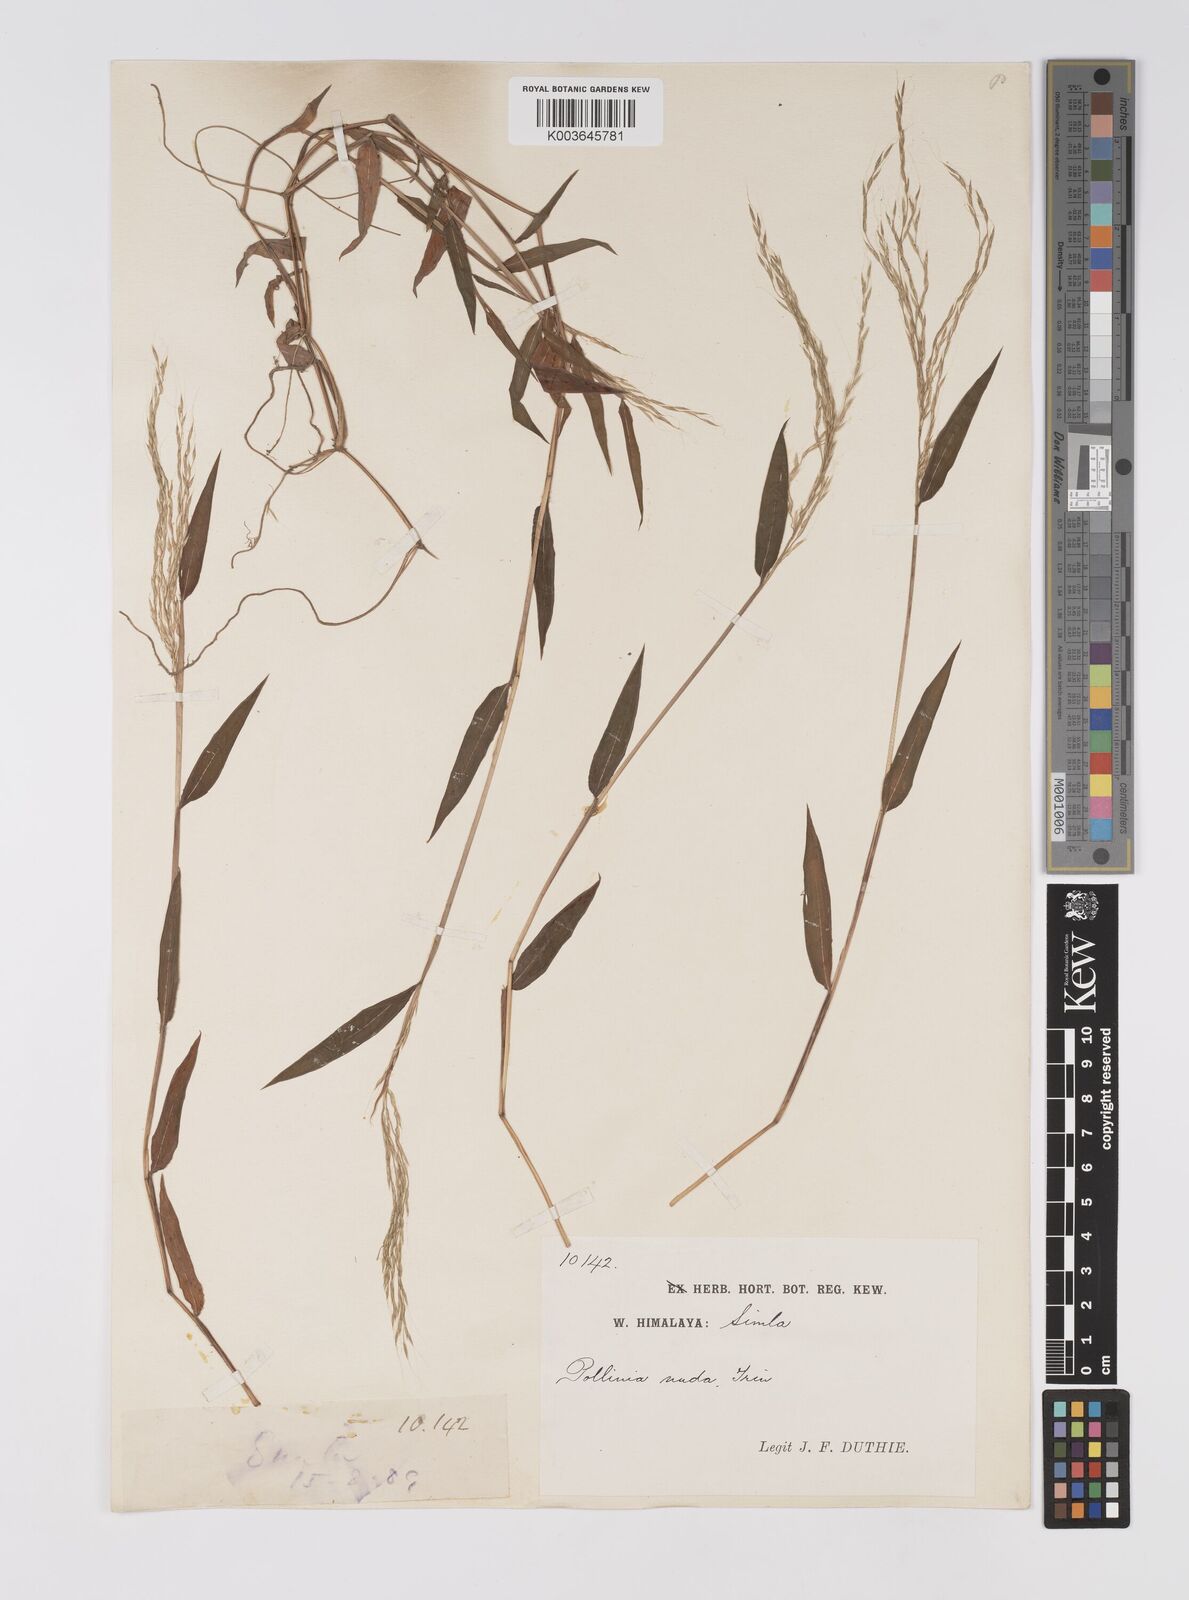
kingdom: Plantae
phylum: Tracheophyta
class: Liliopsida
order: Poales
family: Poaceae
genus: Microstegium
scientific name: Microstegium nudum
